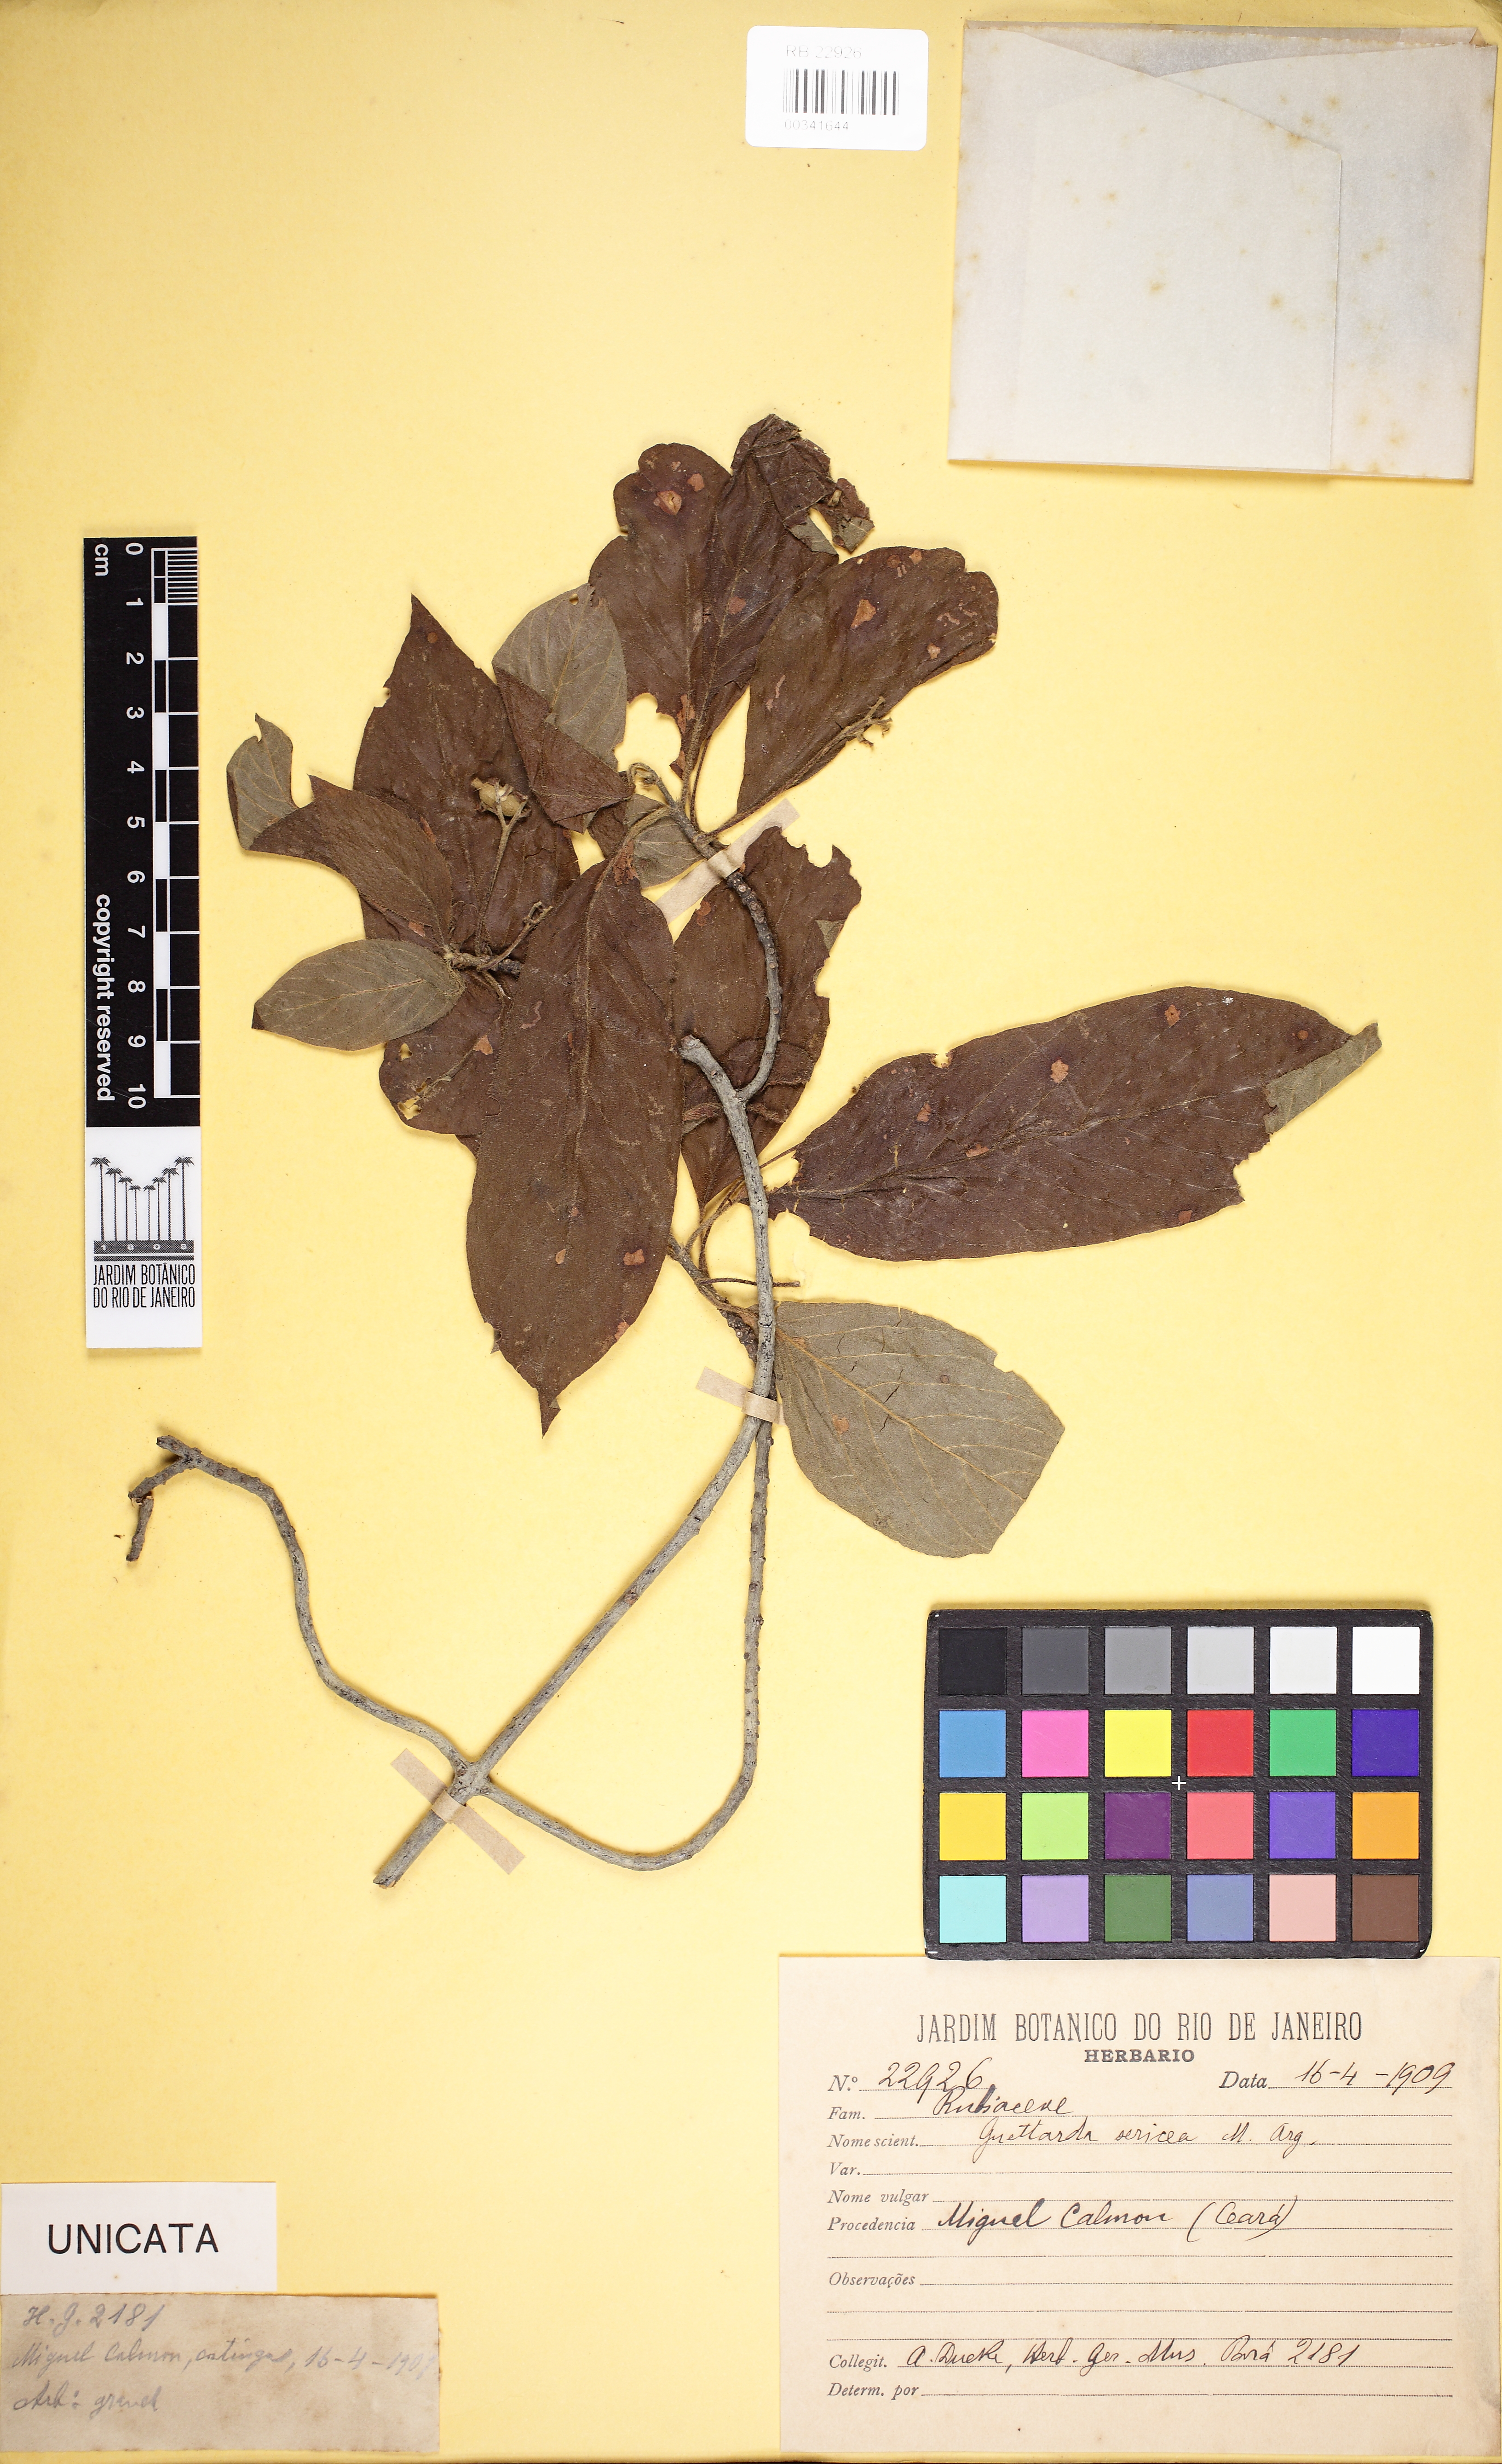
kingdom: Plantae
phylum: Tracheophyta
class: Magnoliopsida
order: Gentianales
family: Rubiaceae
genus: Guettarda
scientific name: Guettarda sericea
